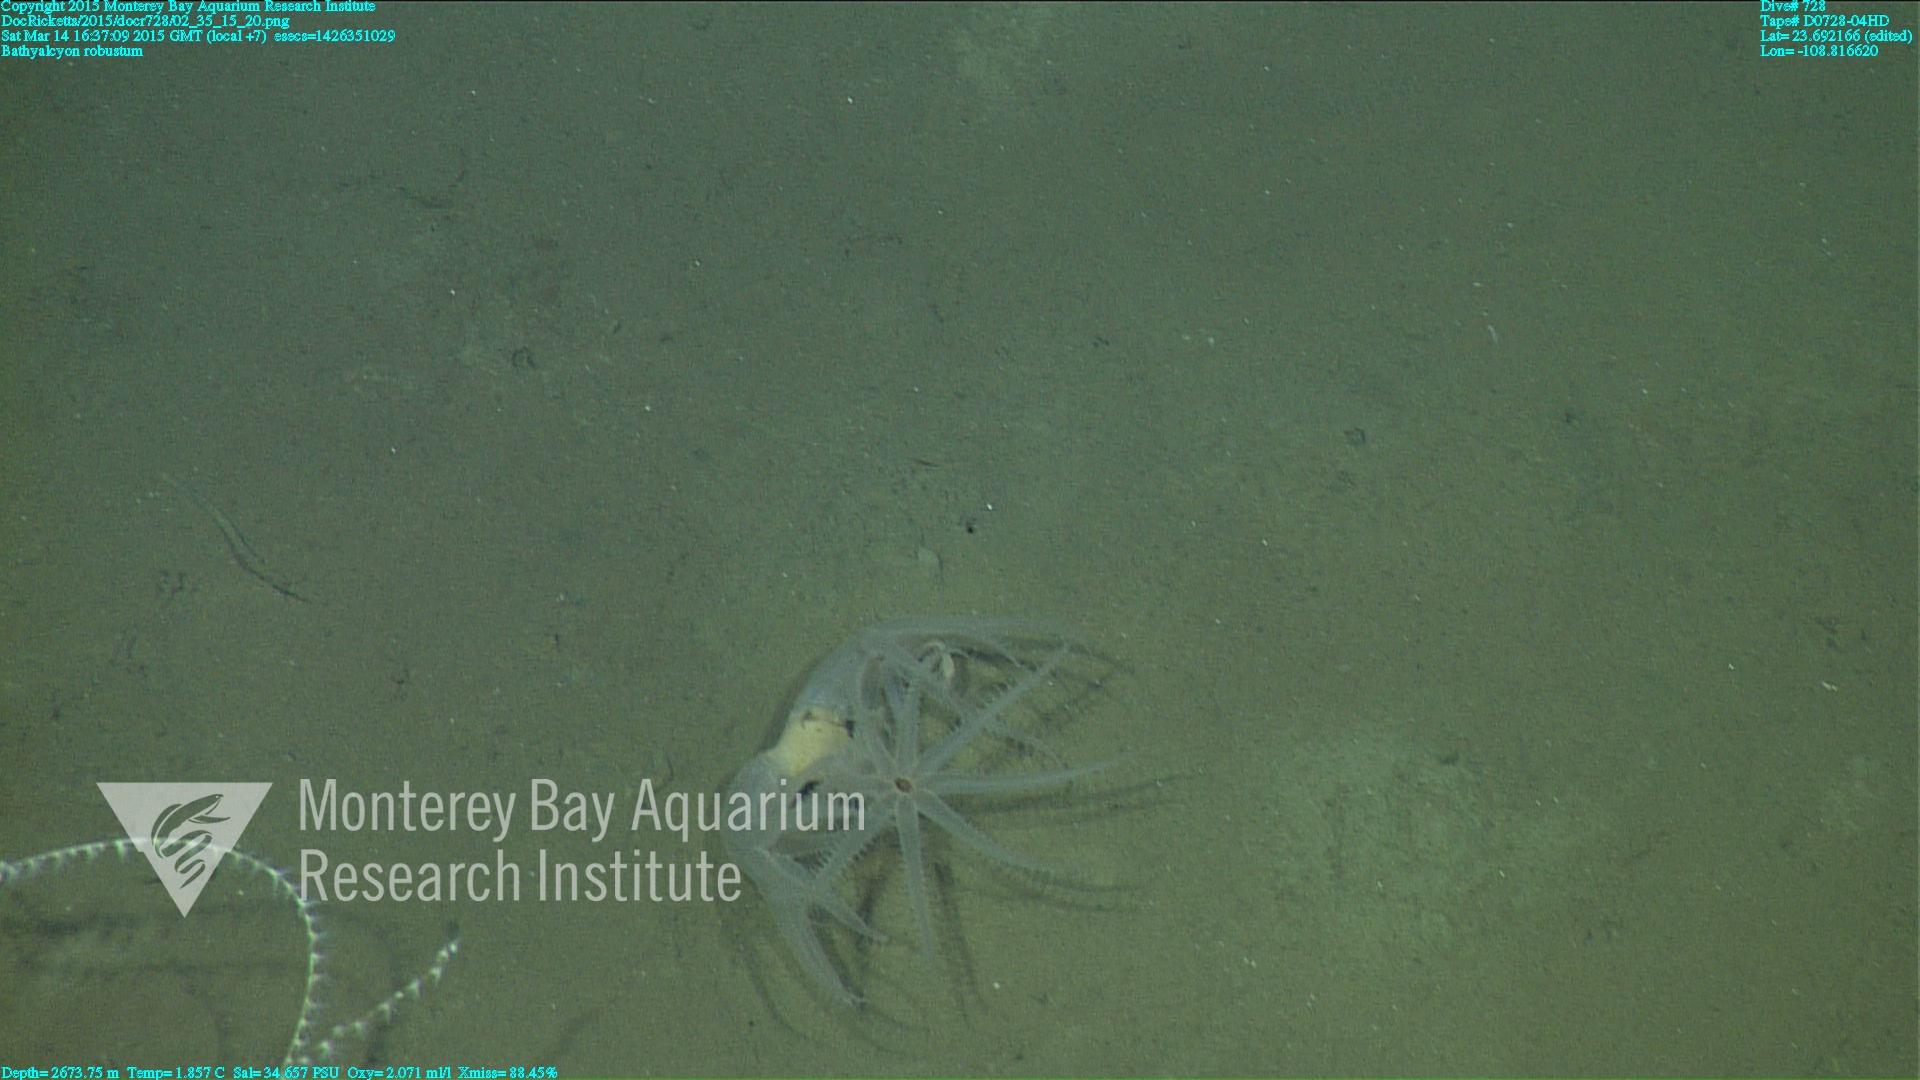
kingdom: Animalia
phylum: Cnidaria
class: Anthozoa
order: Scleralcyonacea
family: Coralliidae
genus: Bathyalcyon
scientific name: Bathyalcyon robustum
